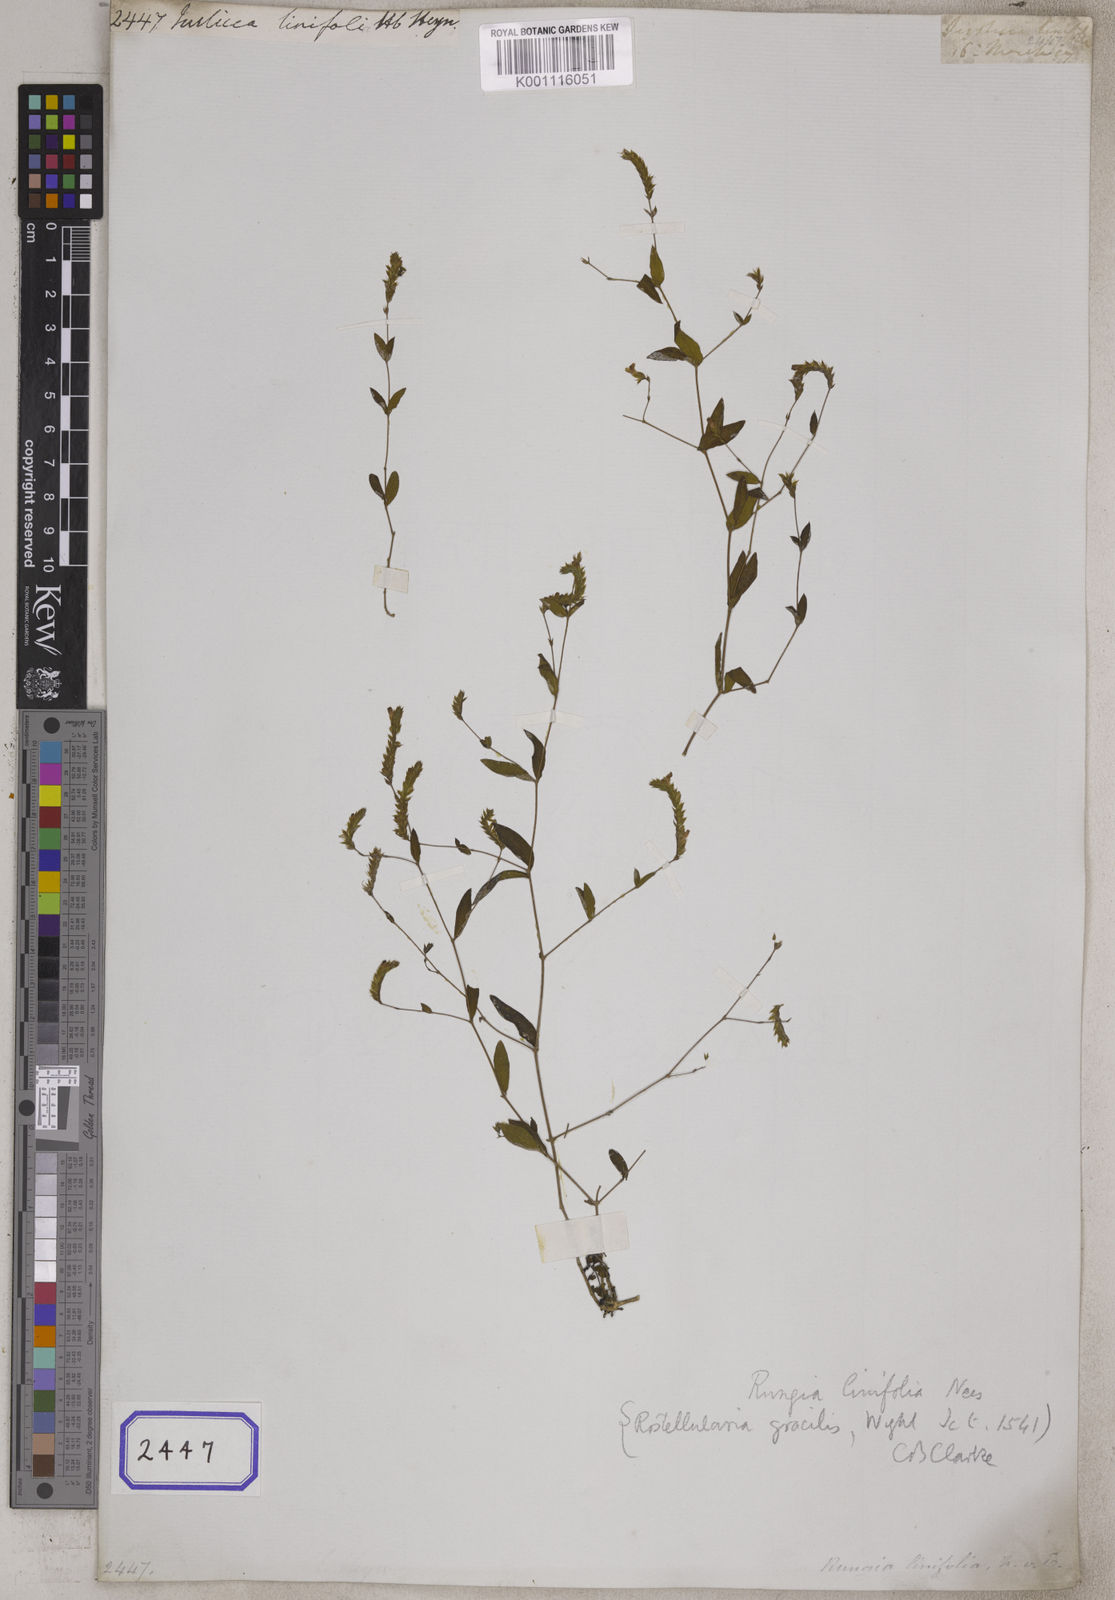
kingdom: Plantae
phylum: Tracheophyta
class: Magnoliopsida
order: Lamiales
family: Acanthaceae
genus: Rungia
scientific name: Rungia linifolia
